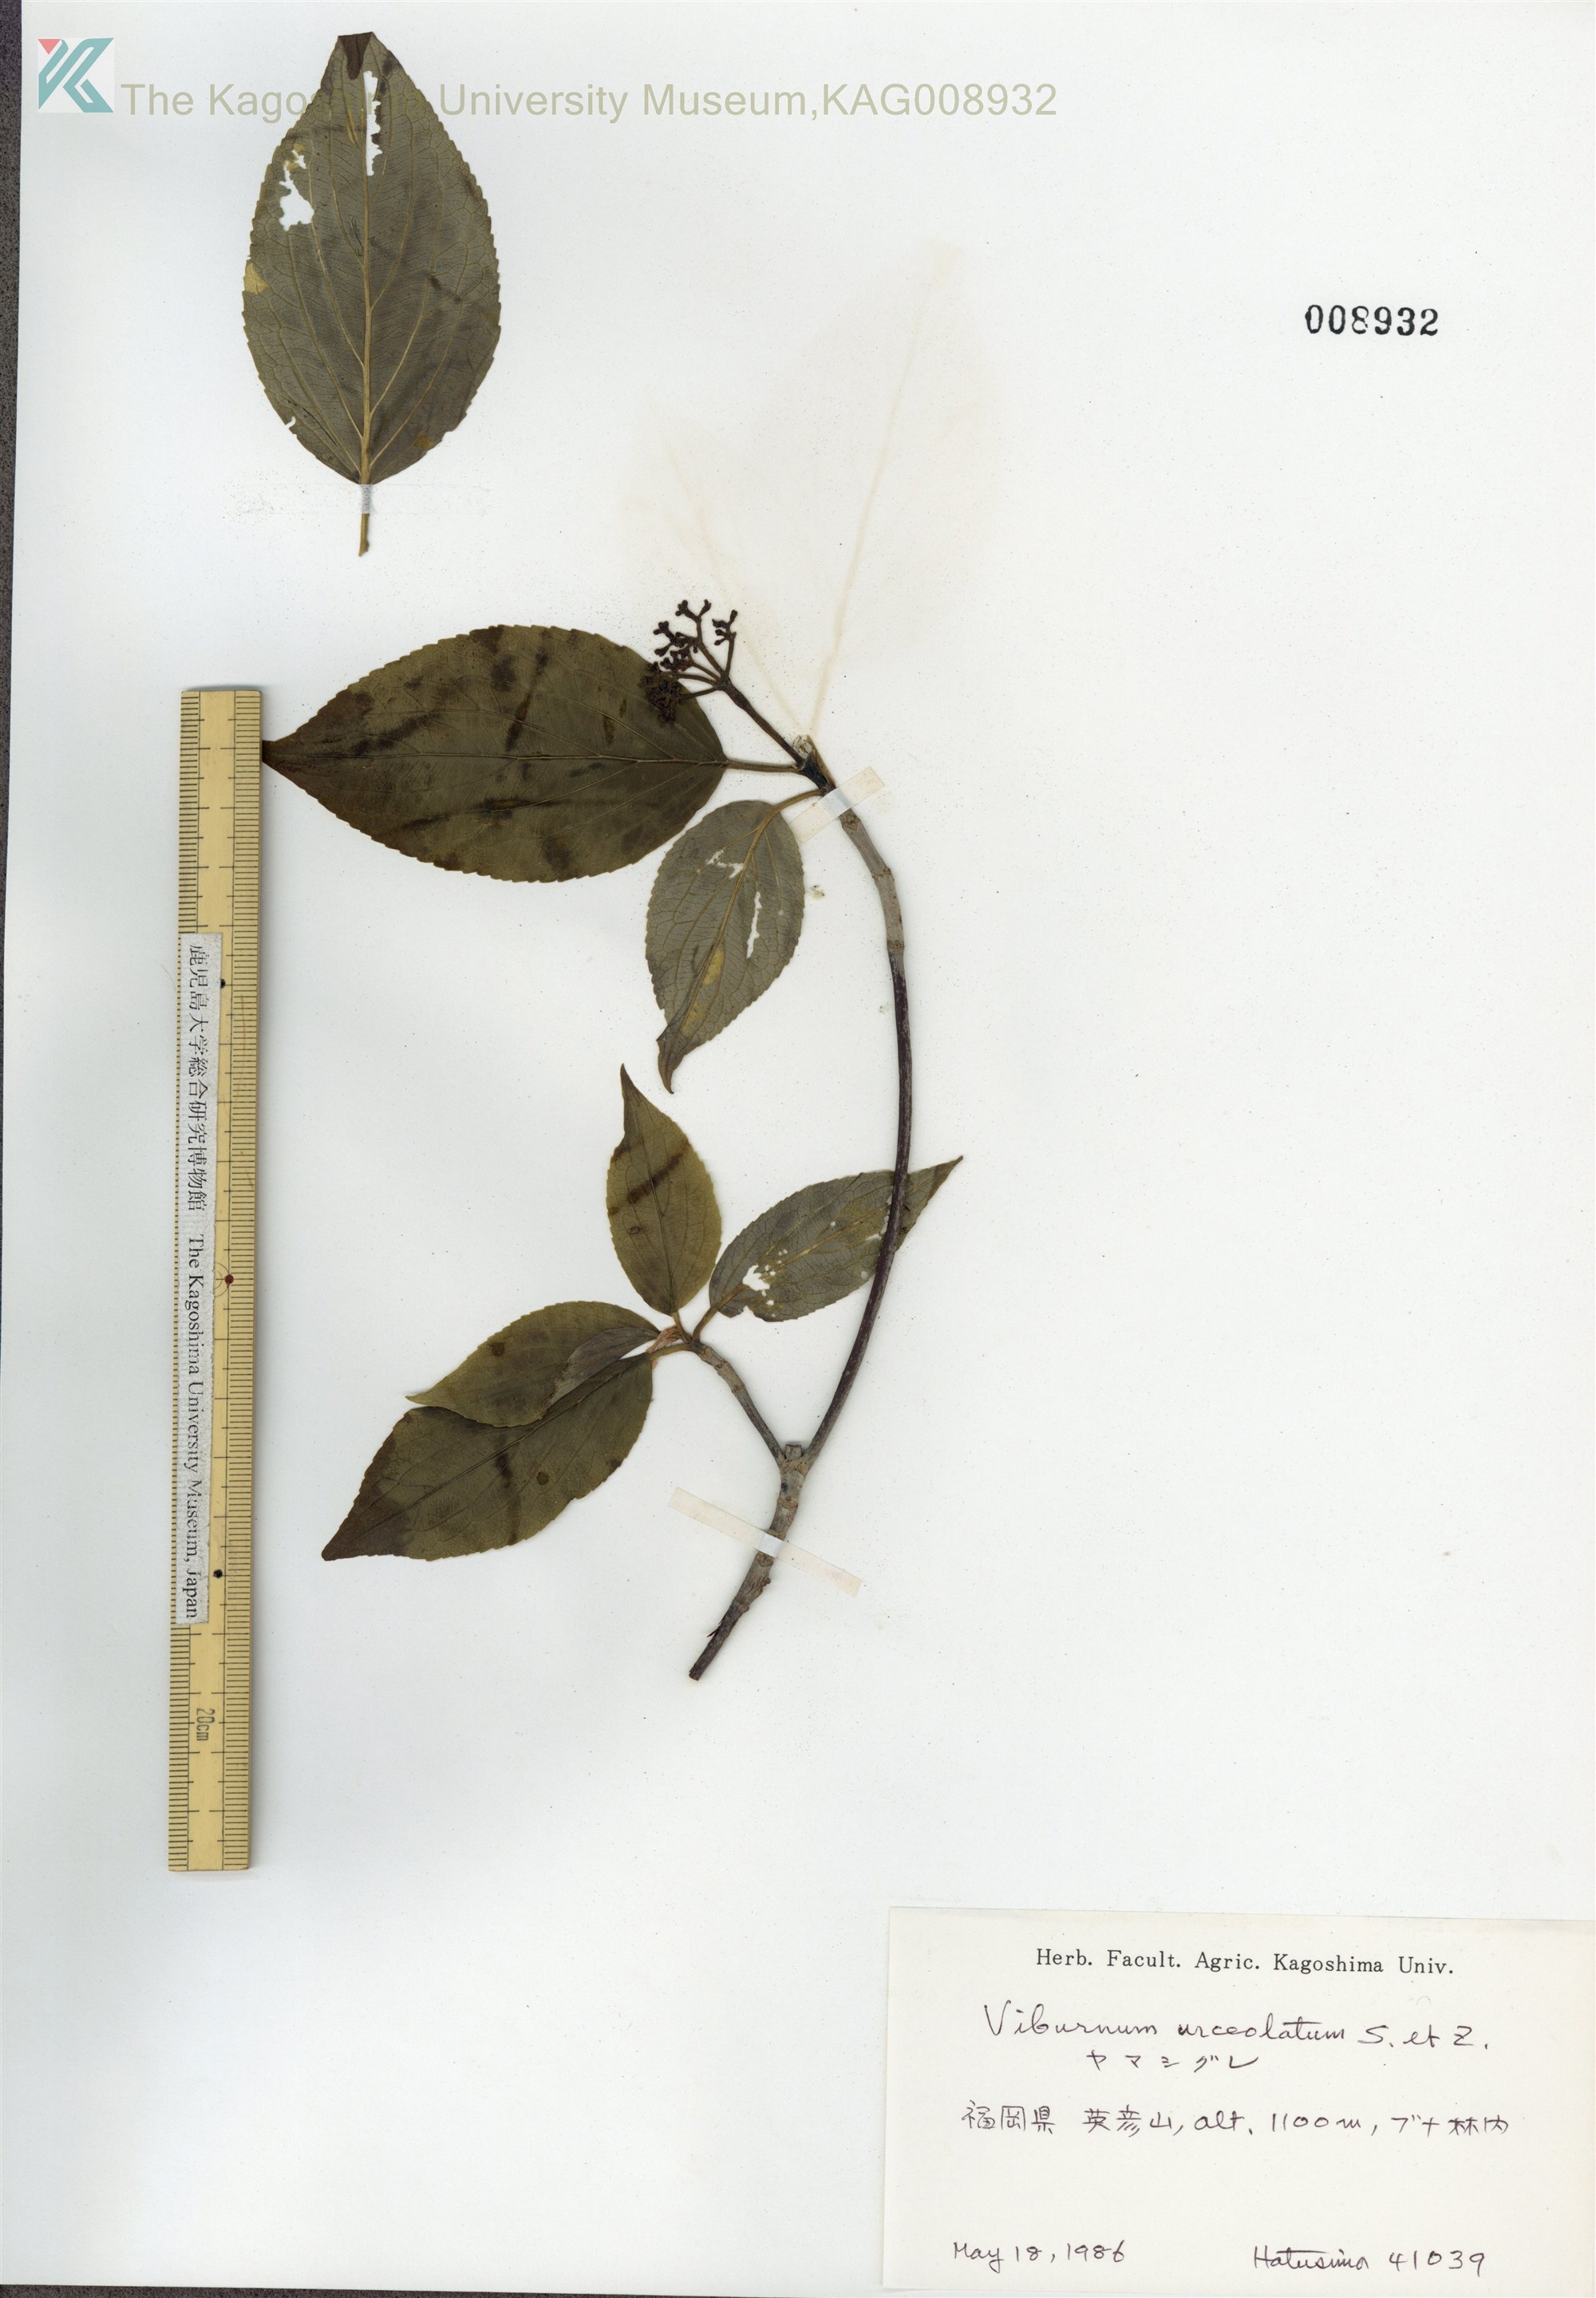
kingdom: Plantae
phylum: Tracheophyta
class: Magnoliopsida
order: Dipsacales
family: Viburnaceae
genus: Viburnum
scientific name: Viburnum urceolatum
